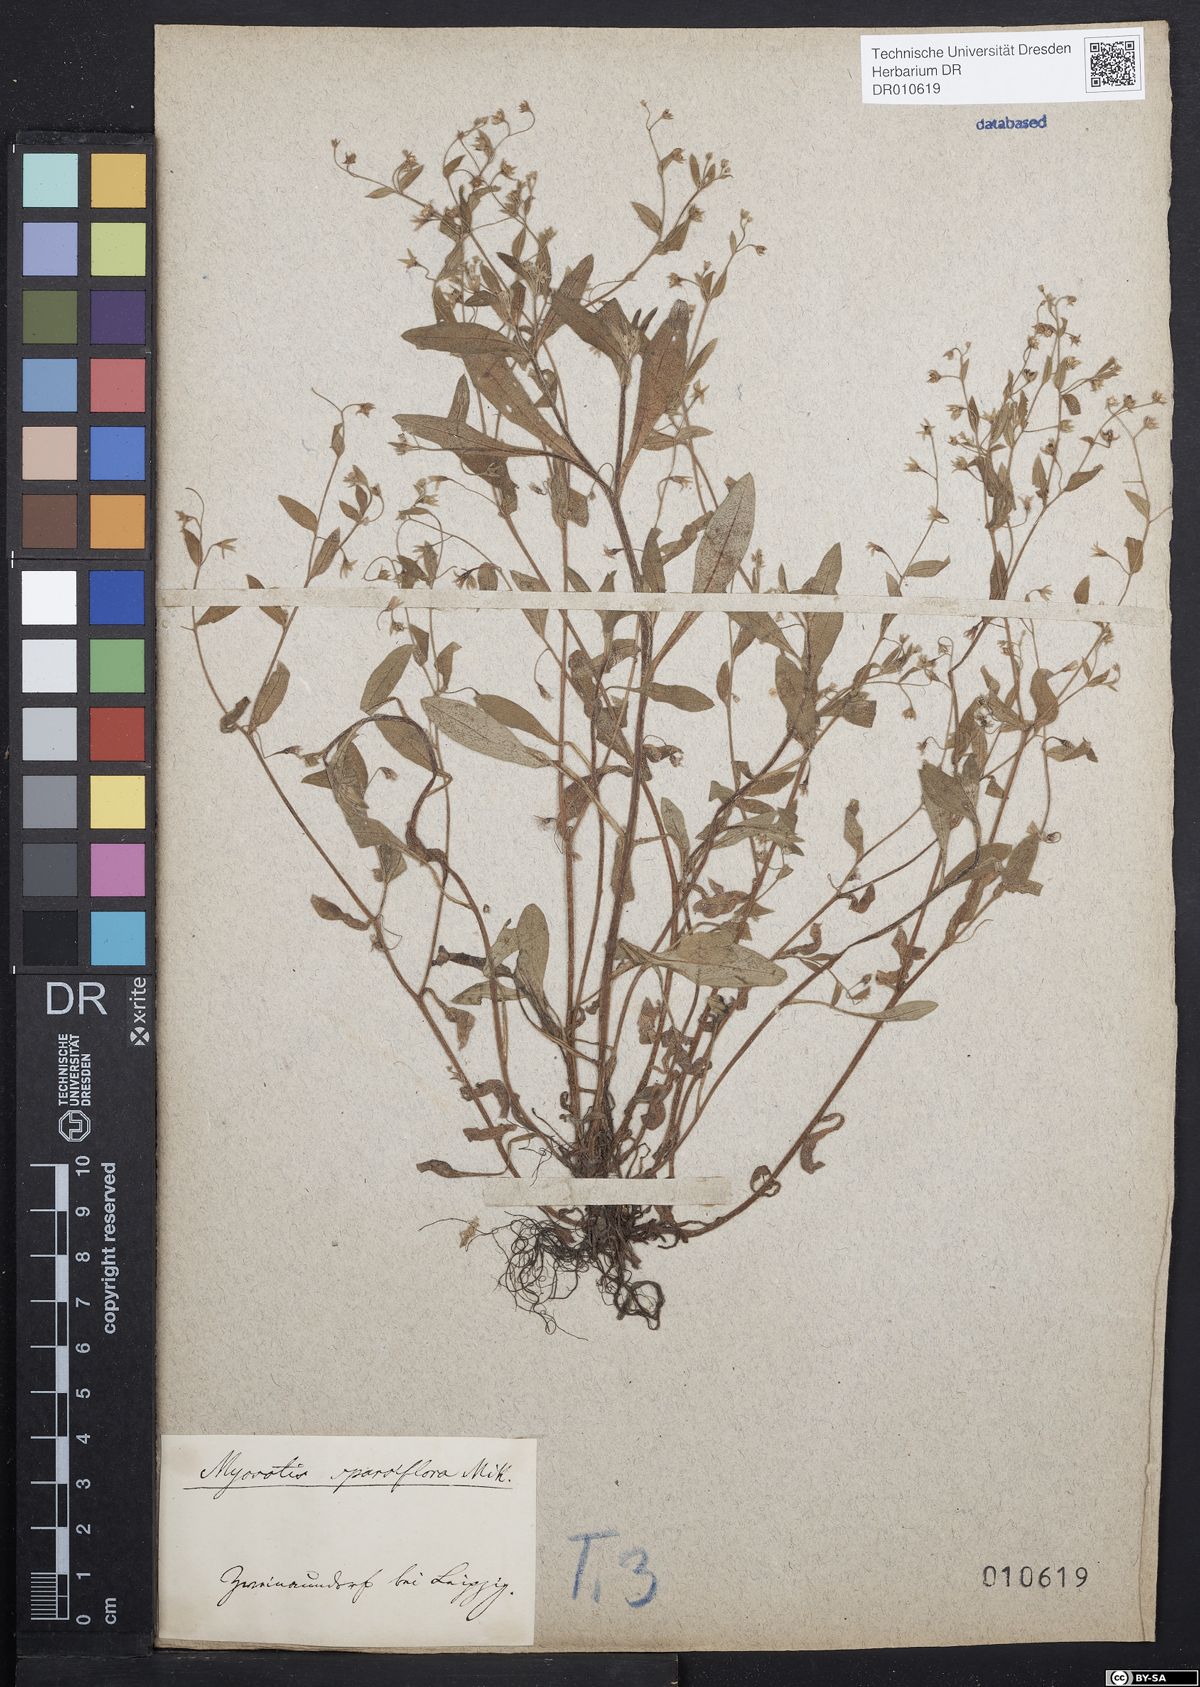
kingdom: Plantae
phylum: Tracheophyta
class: Magnoliopsida
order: Boraginales
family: Boraginaceae
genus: Myosotis
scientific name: Myosotis sparsiflora
